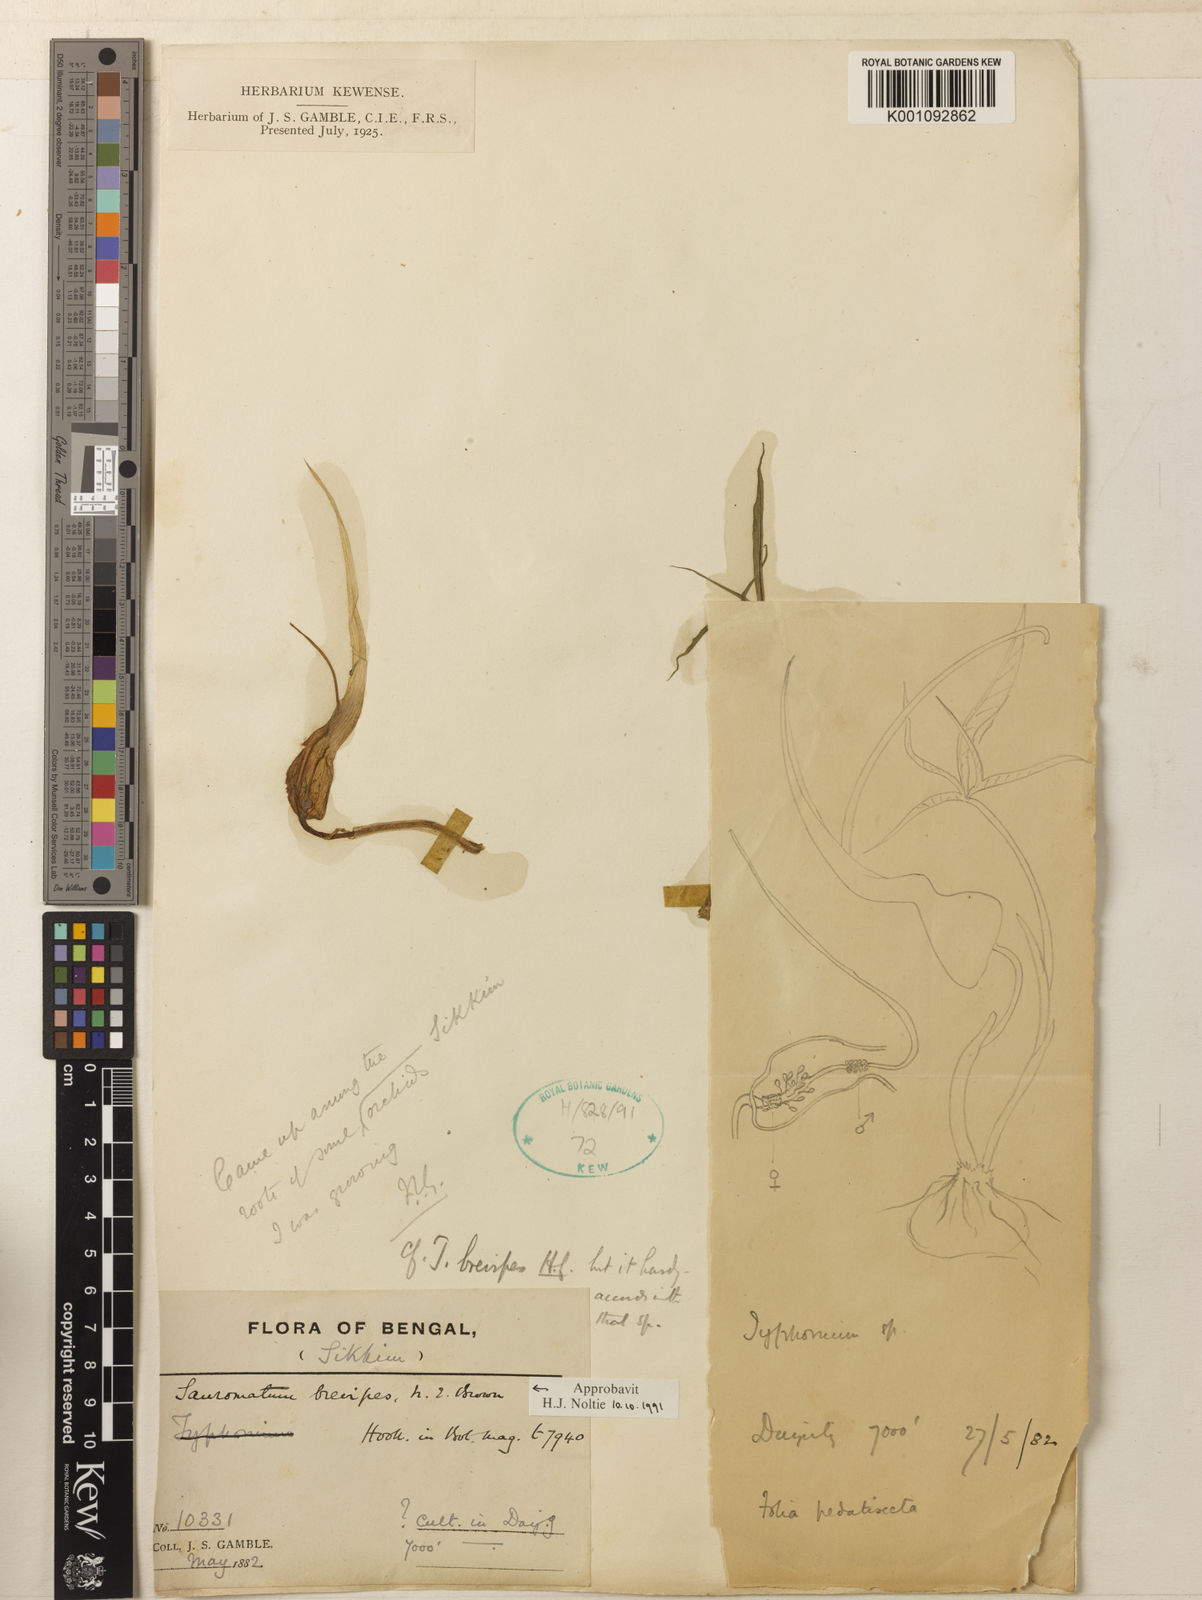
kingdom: Plantae
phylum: Tracheophyta
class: Liliopsida
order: Alismatales
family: Araceae
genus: Sauromatum
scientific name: Sauromatum brevipes
